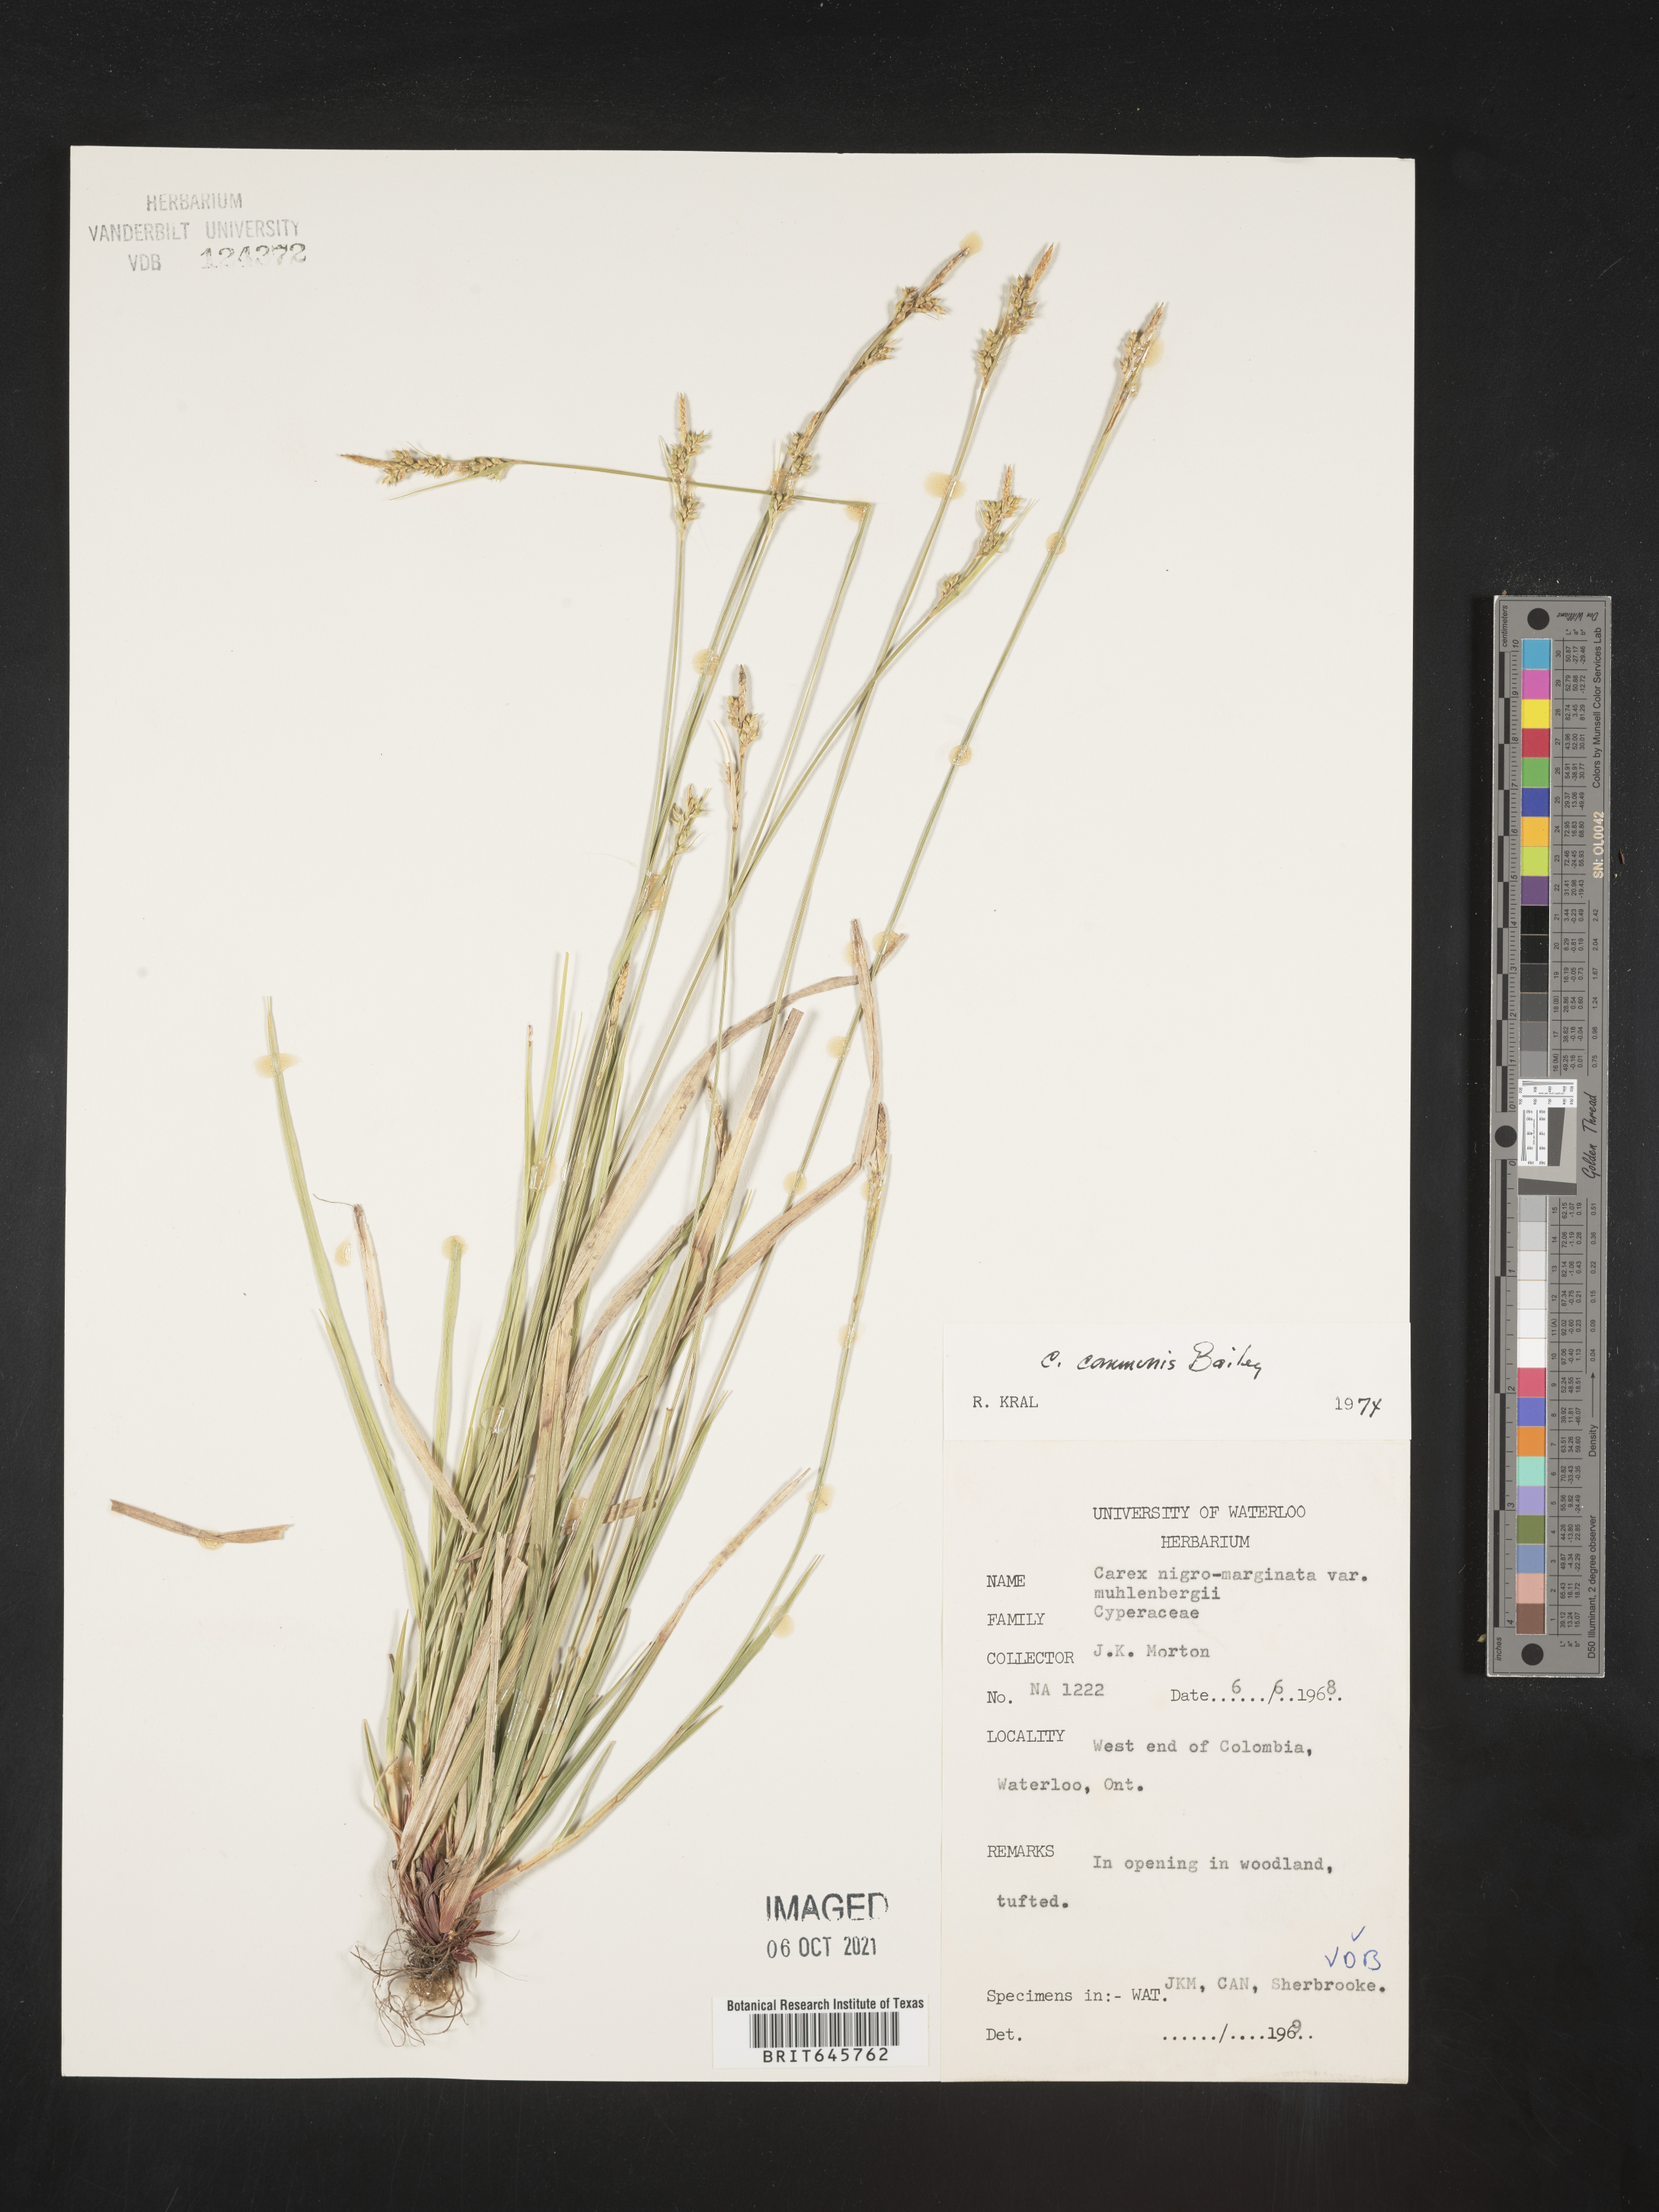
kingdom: Plantae
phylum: Tracheophyta
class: Liliopsida
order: Poales
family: Cyperaceae
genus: Carex
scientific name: Carex communis
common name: Colonial oak sedge
